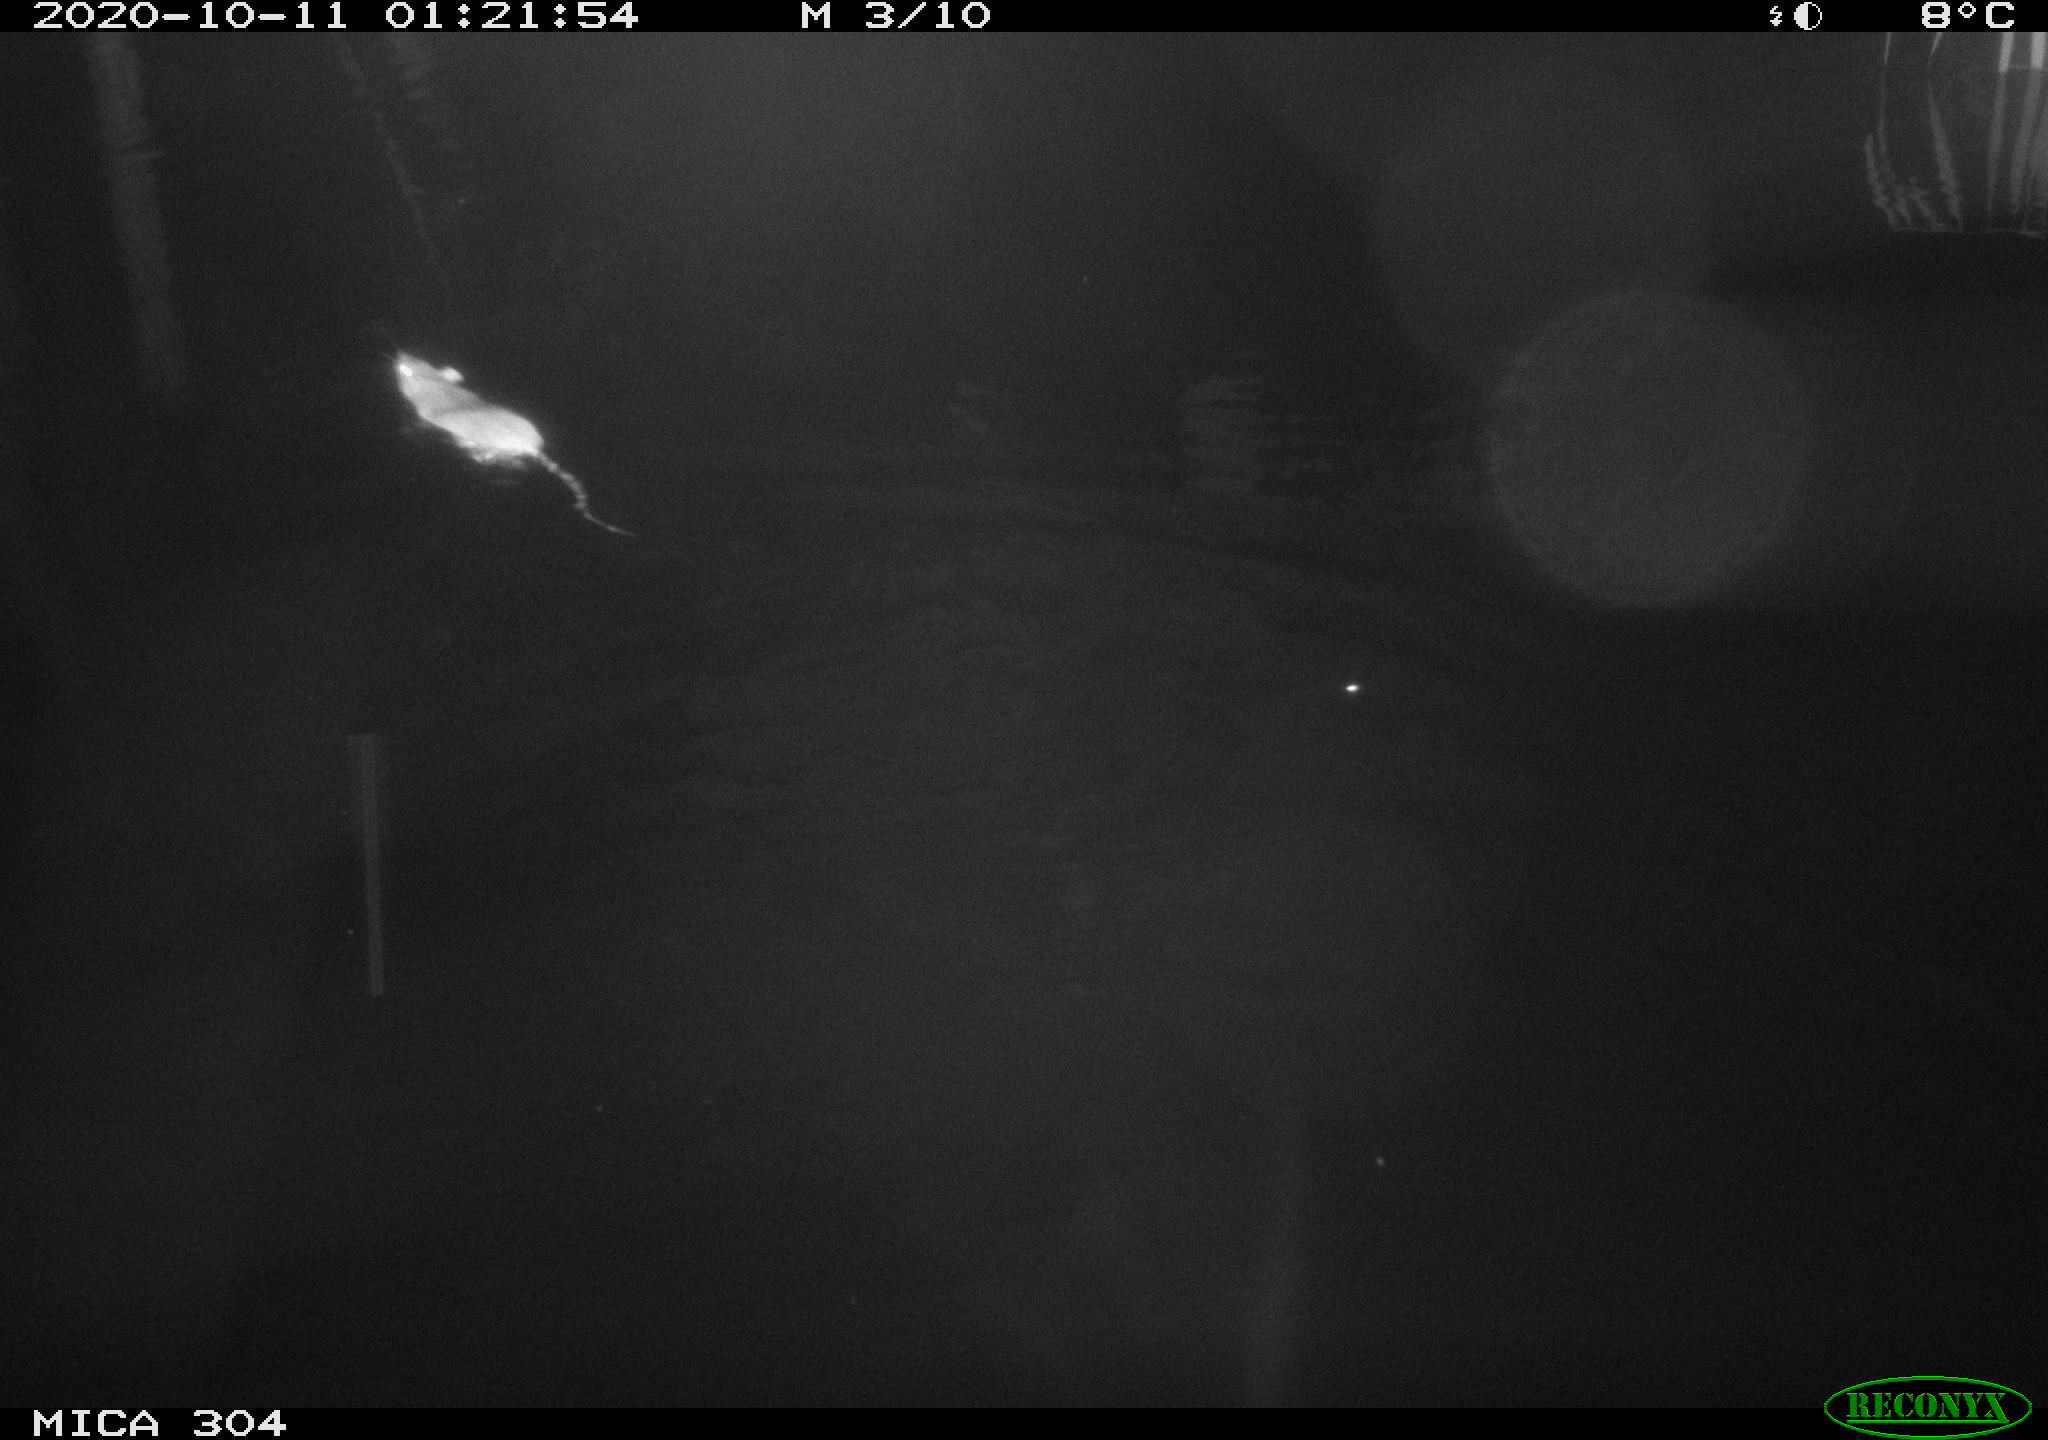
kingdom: Animalia
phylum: Chordata
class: Mammalia
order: Rodentia
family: Muridae
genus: Rattus
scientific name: Rattus norvegicus
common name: Brown rat
